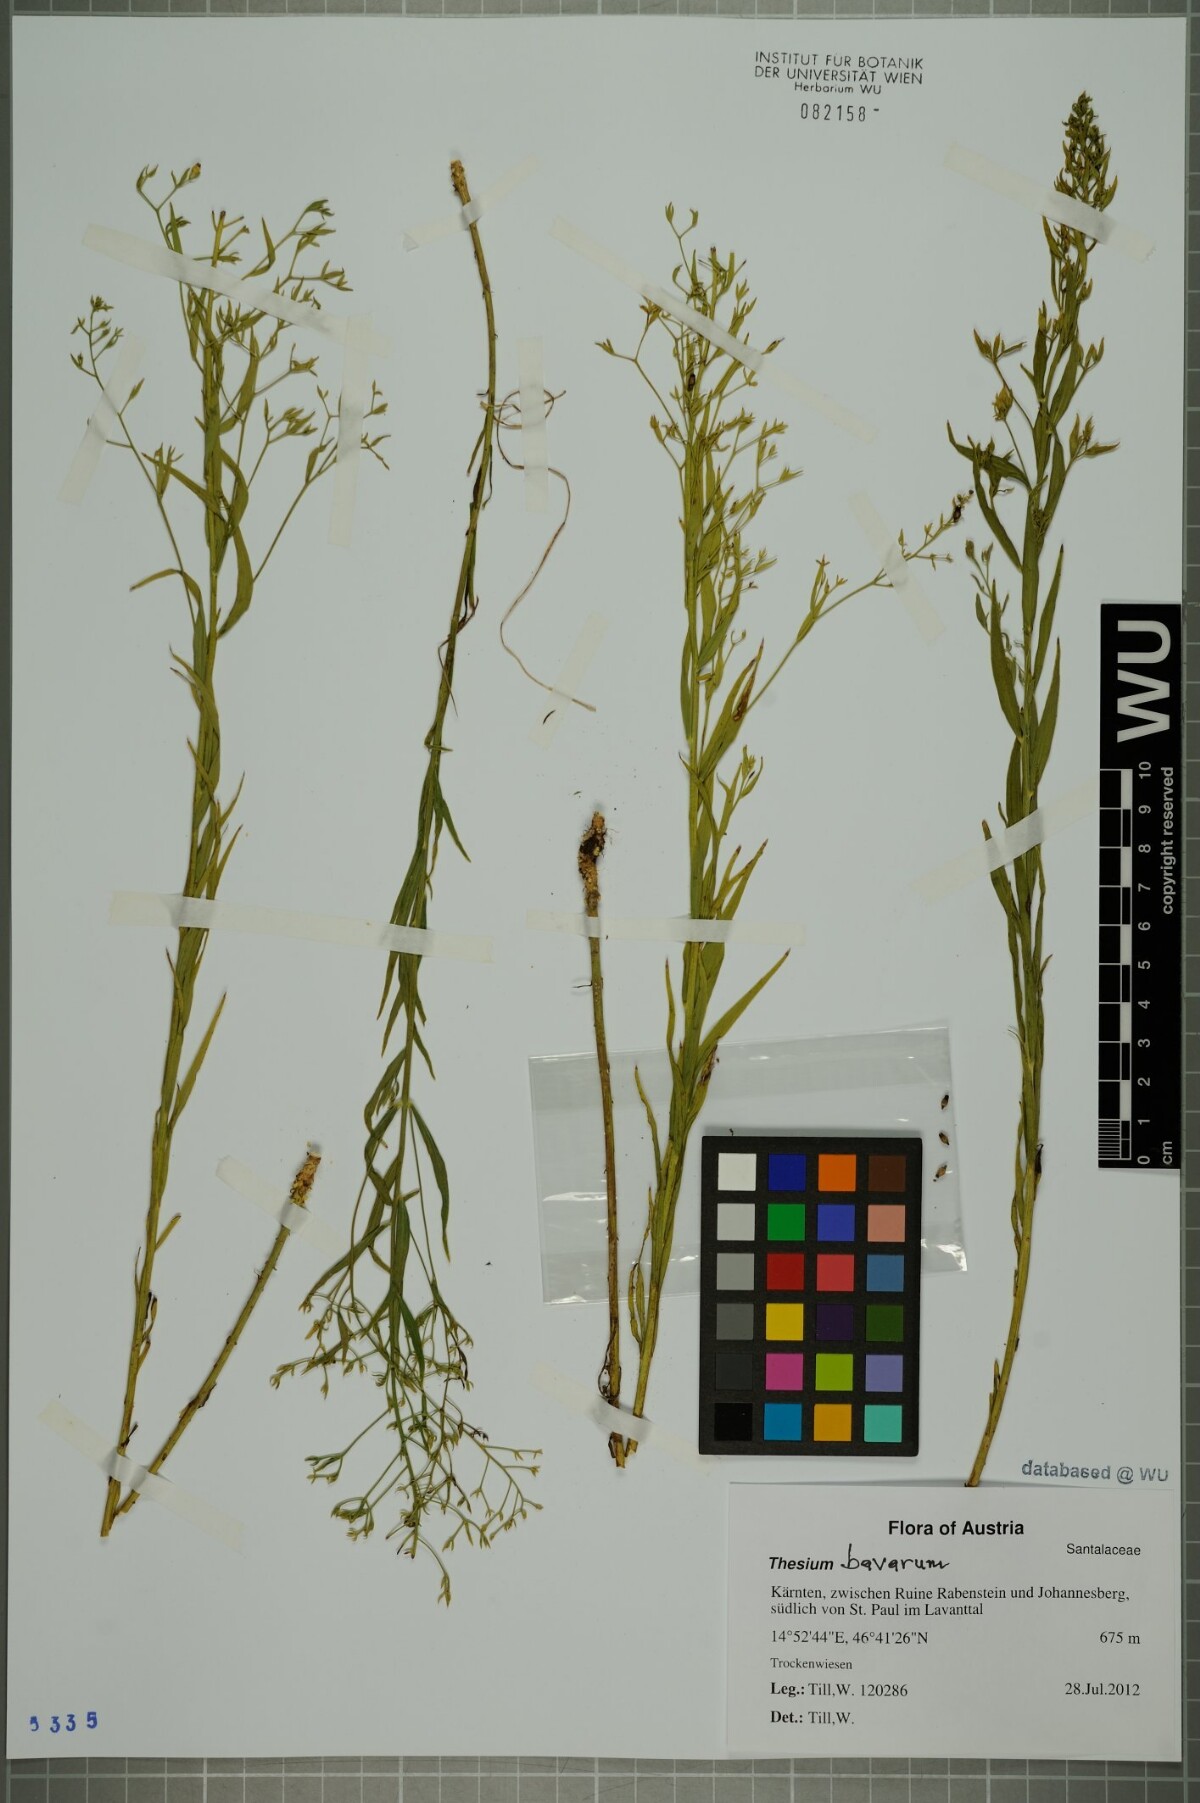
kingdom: Plantae
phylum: Tracheophyta
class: Magnoliopsida
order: Santalales
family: Thesiaceae
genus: Thesium
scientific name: Thesium bavarum
